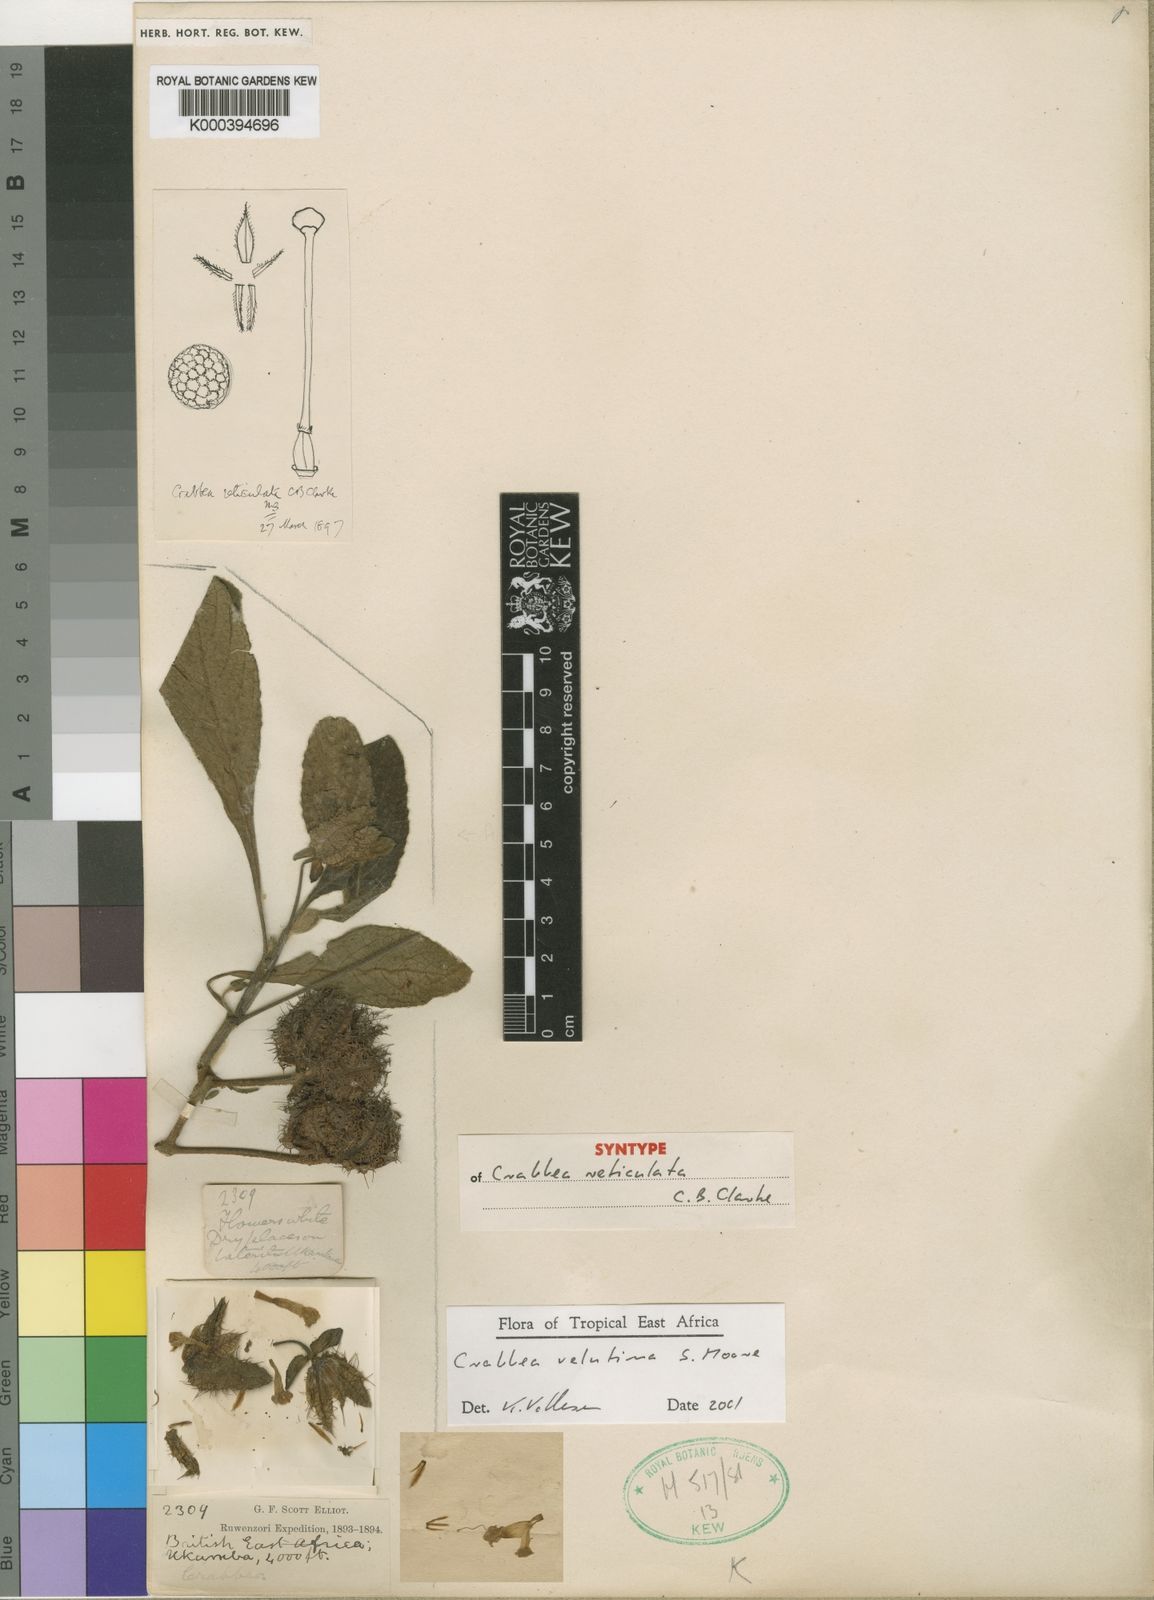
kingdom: Plantae
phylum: Tracheophyta
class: Magnoliopsida
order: Lamiales
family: Acanthaceae
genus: Crabbea
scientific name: Crabbea velutina
